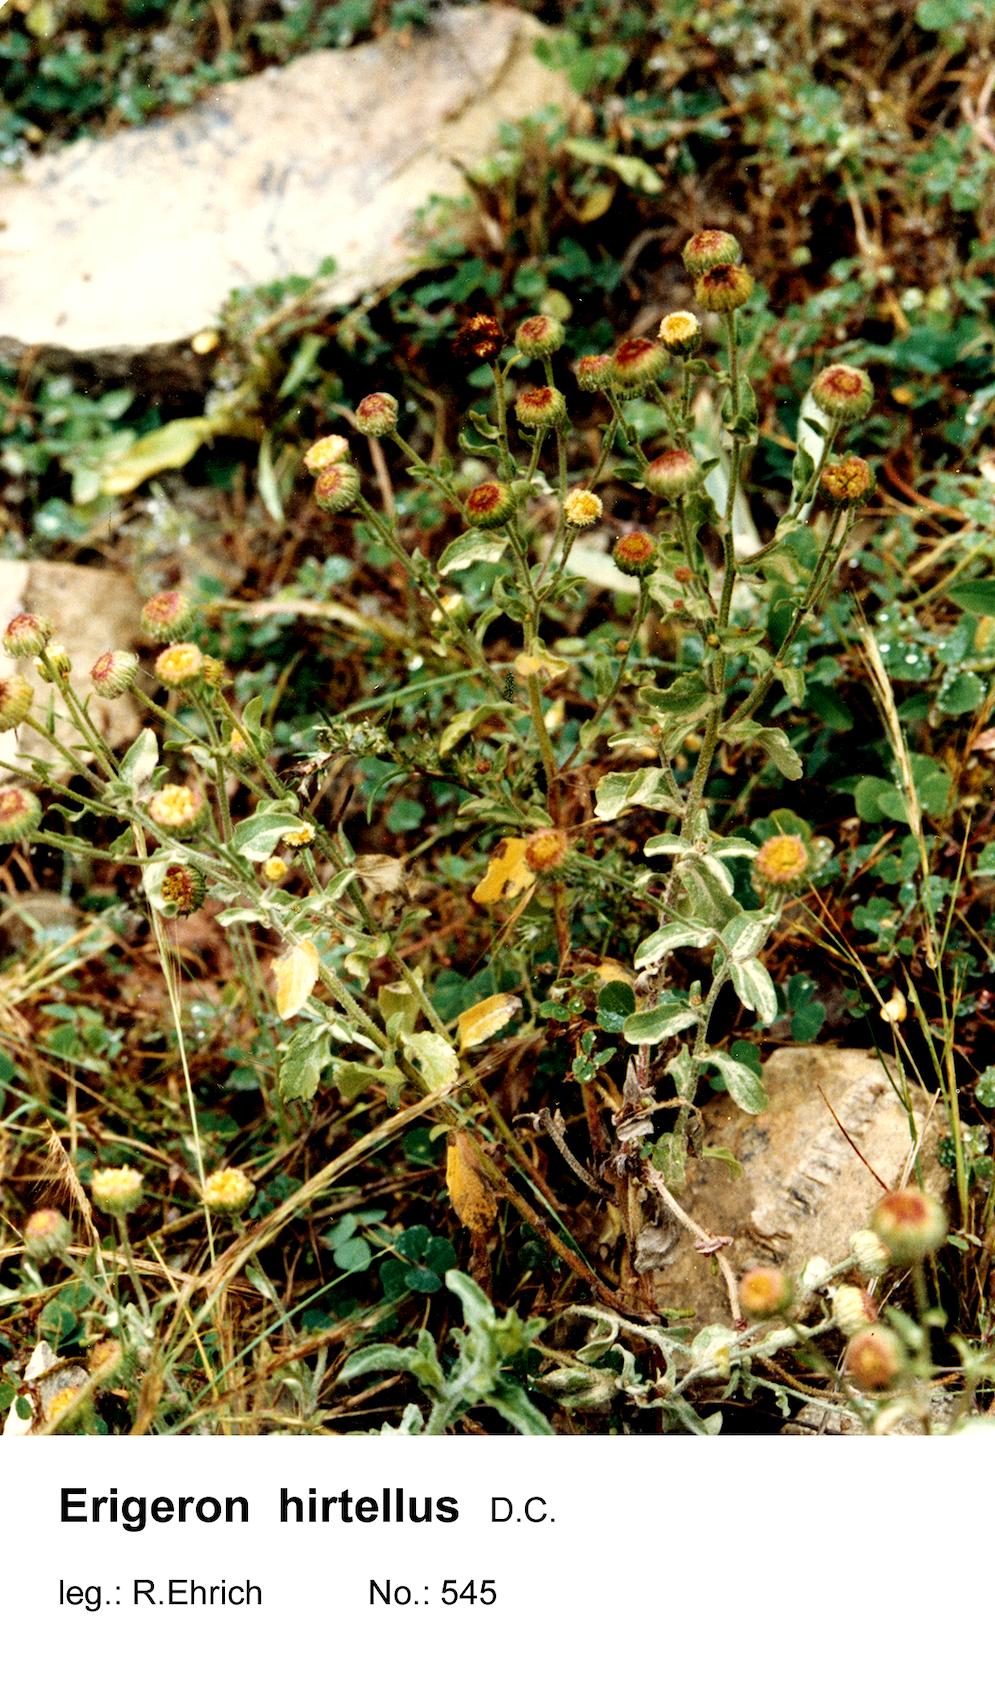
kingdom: Plantae
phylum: Tracheophyta
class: Magnoliopsida
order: Asterales
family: Asteraceae
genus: Erigeron
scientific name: Erigeron hirtellus
